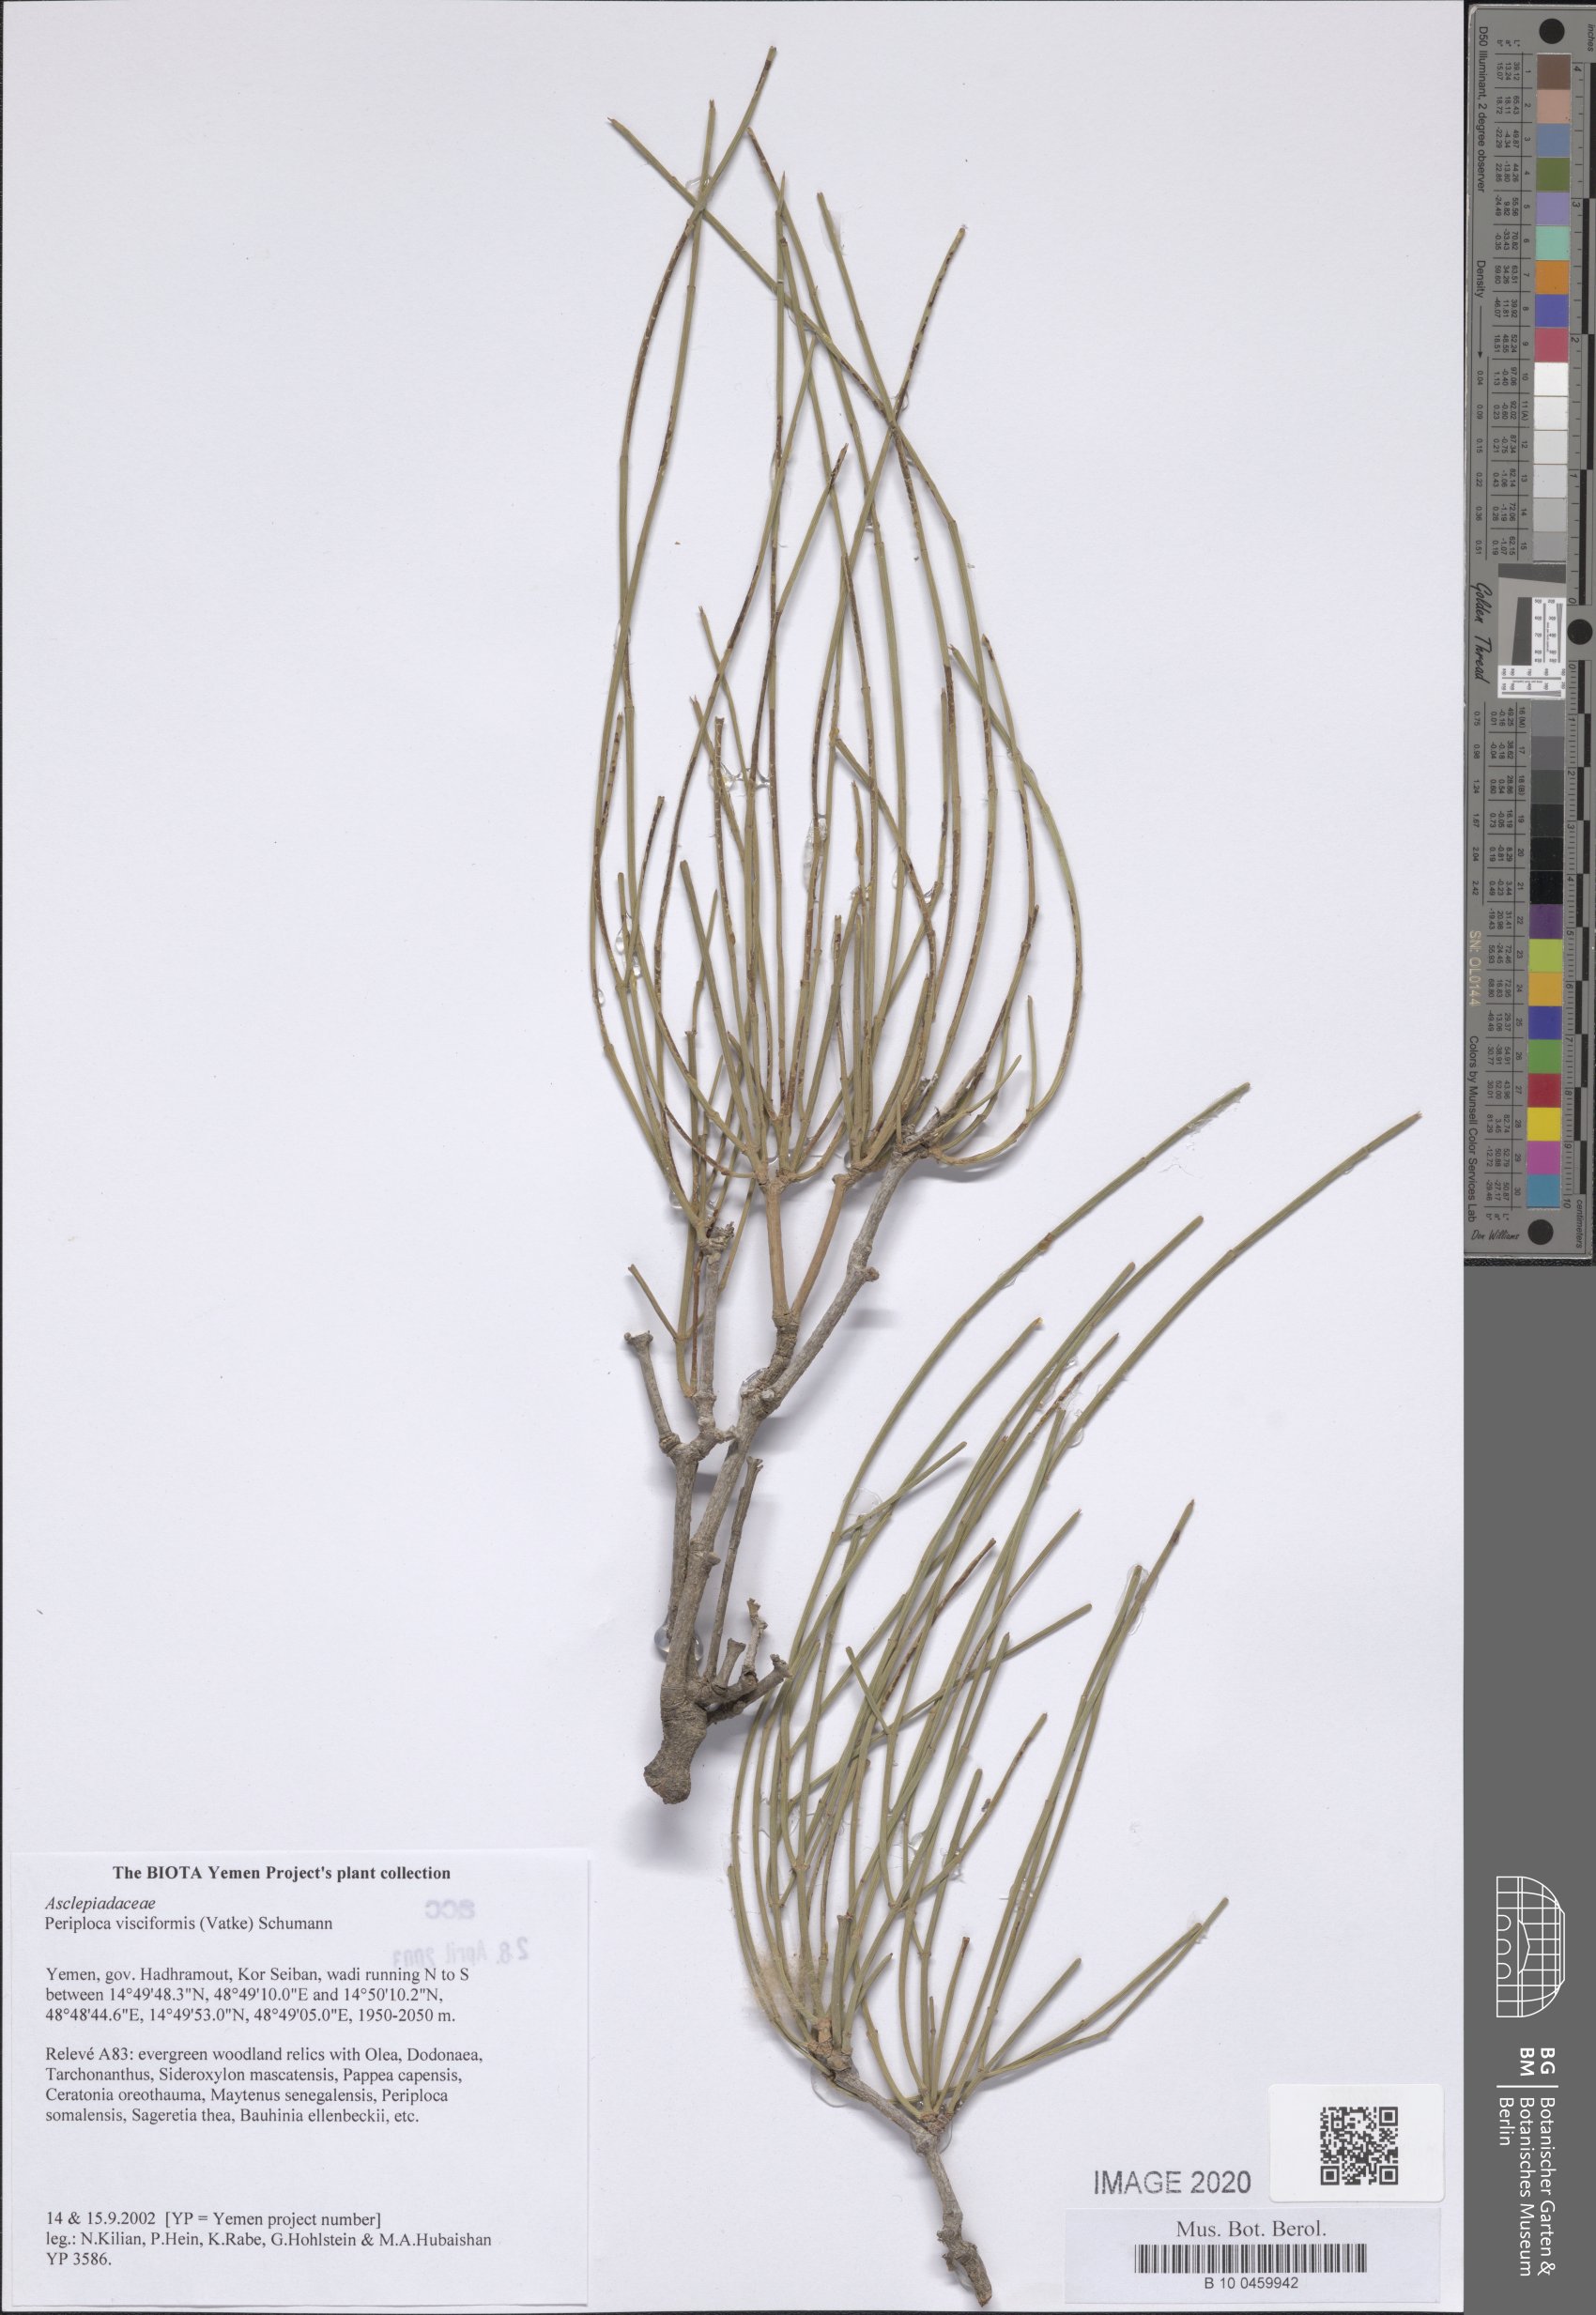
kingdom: Plantae
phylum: Tracheophyta
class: Magnoliopsida
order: Gentianales
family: Apocynaceae
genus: Periploca
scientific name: Periploca visciformis
